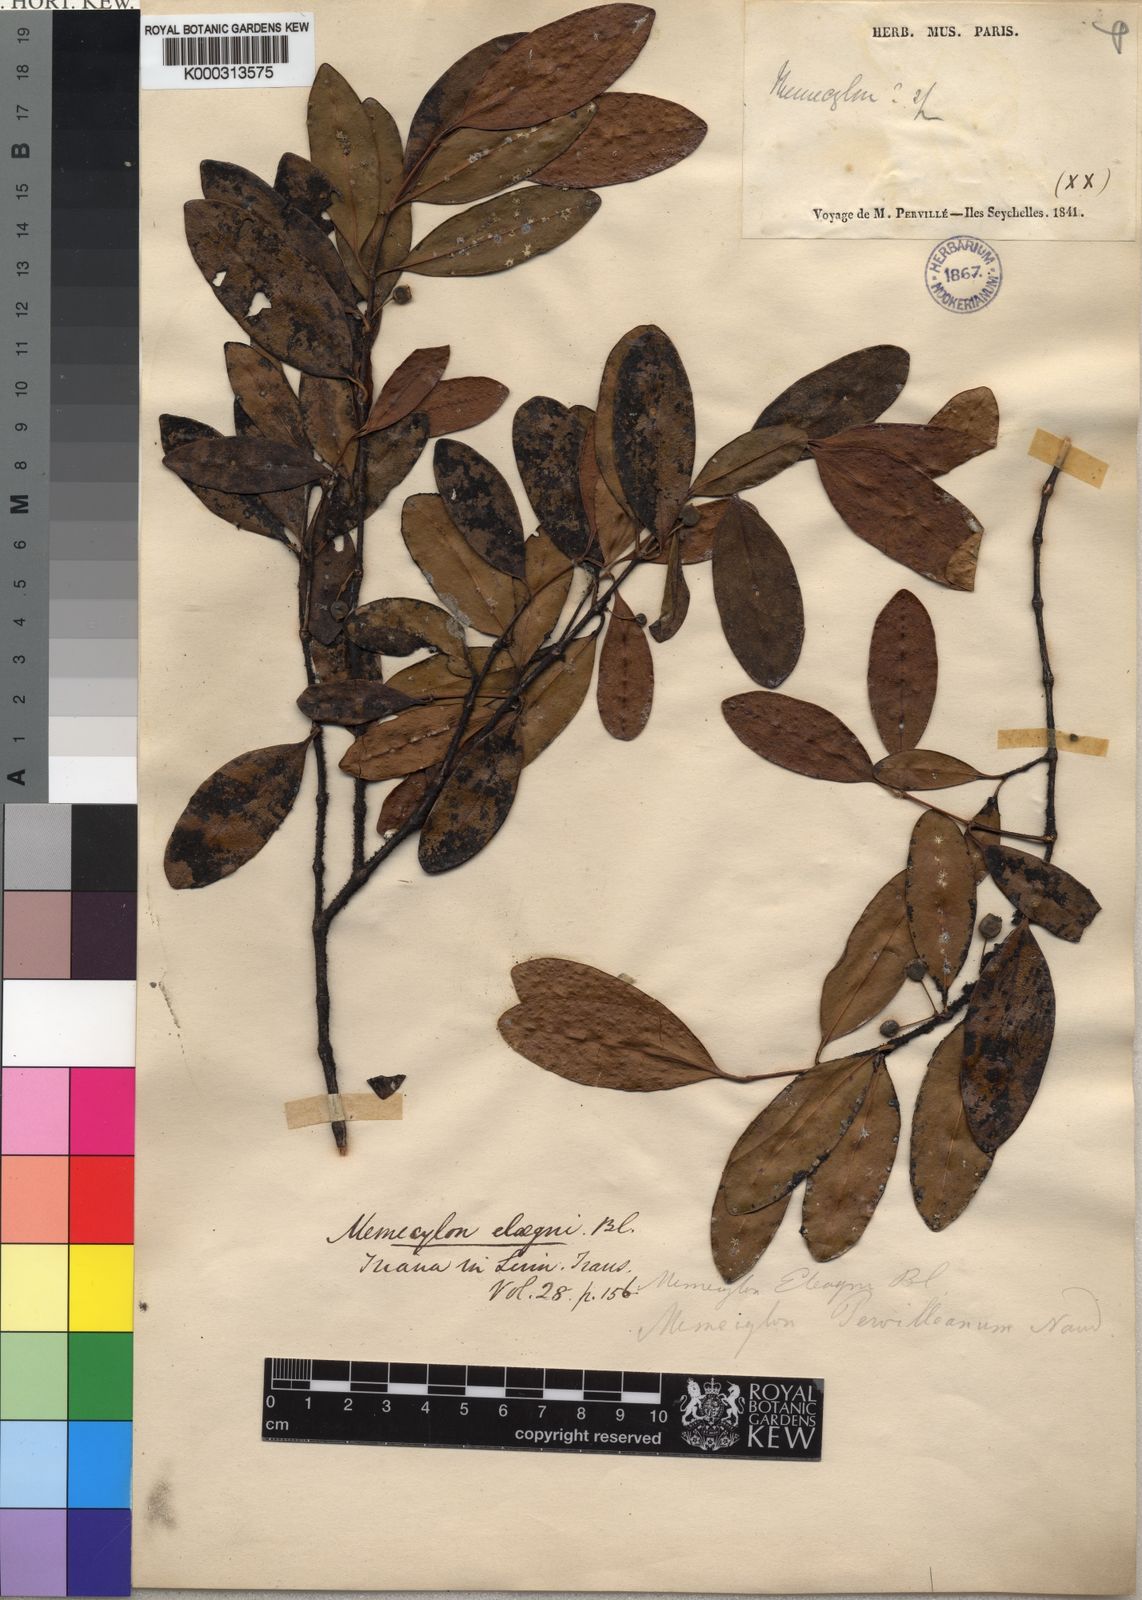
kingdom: Plantae
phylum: Tracheophyta
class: Magnoliopsida
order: Myrtales
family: Melastomataceae
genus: Memecylon
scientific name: Memecylon elaeagni
